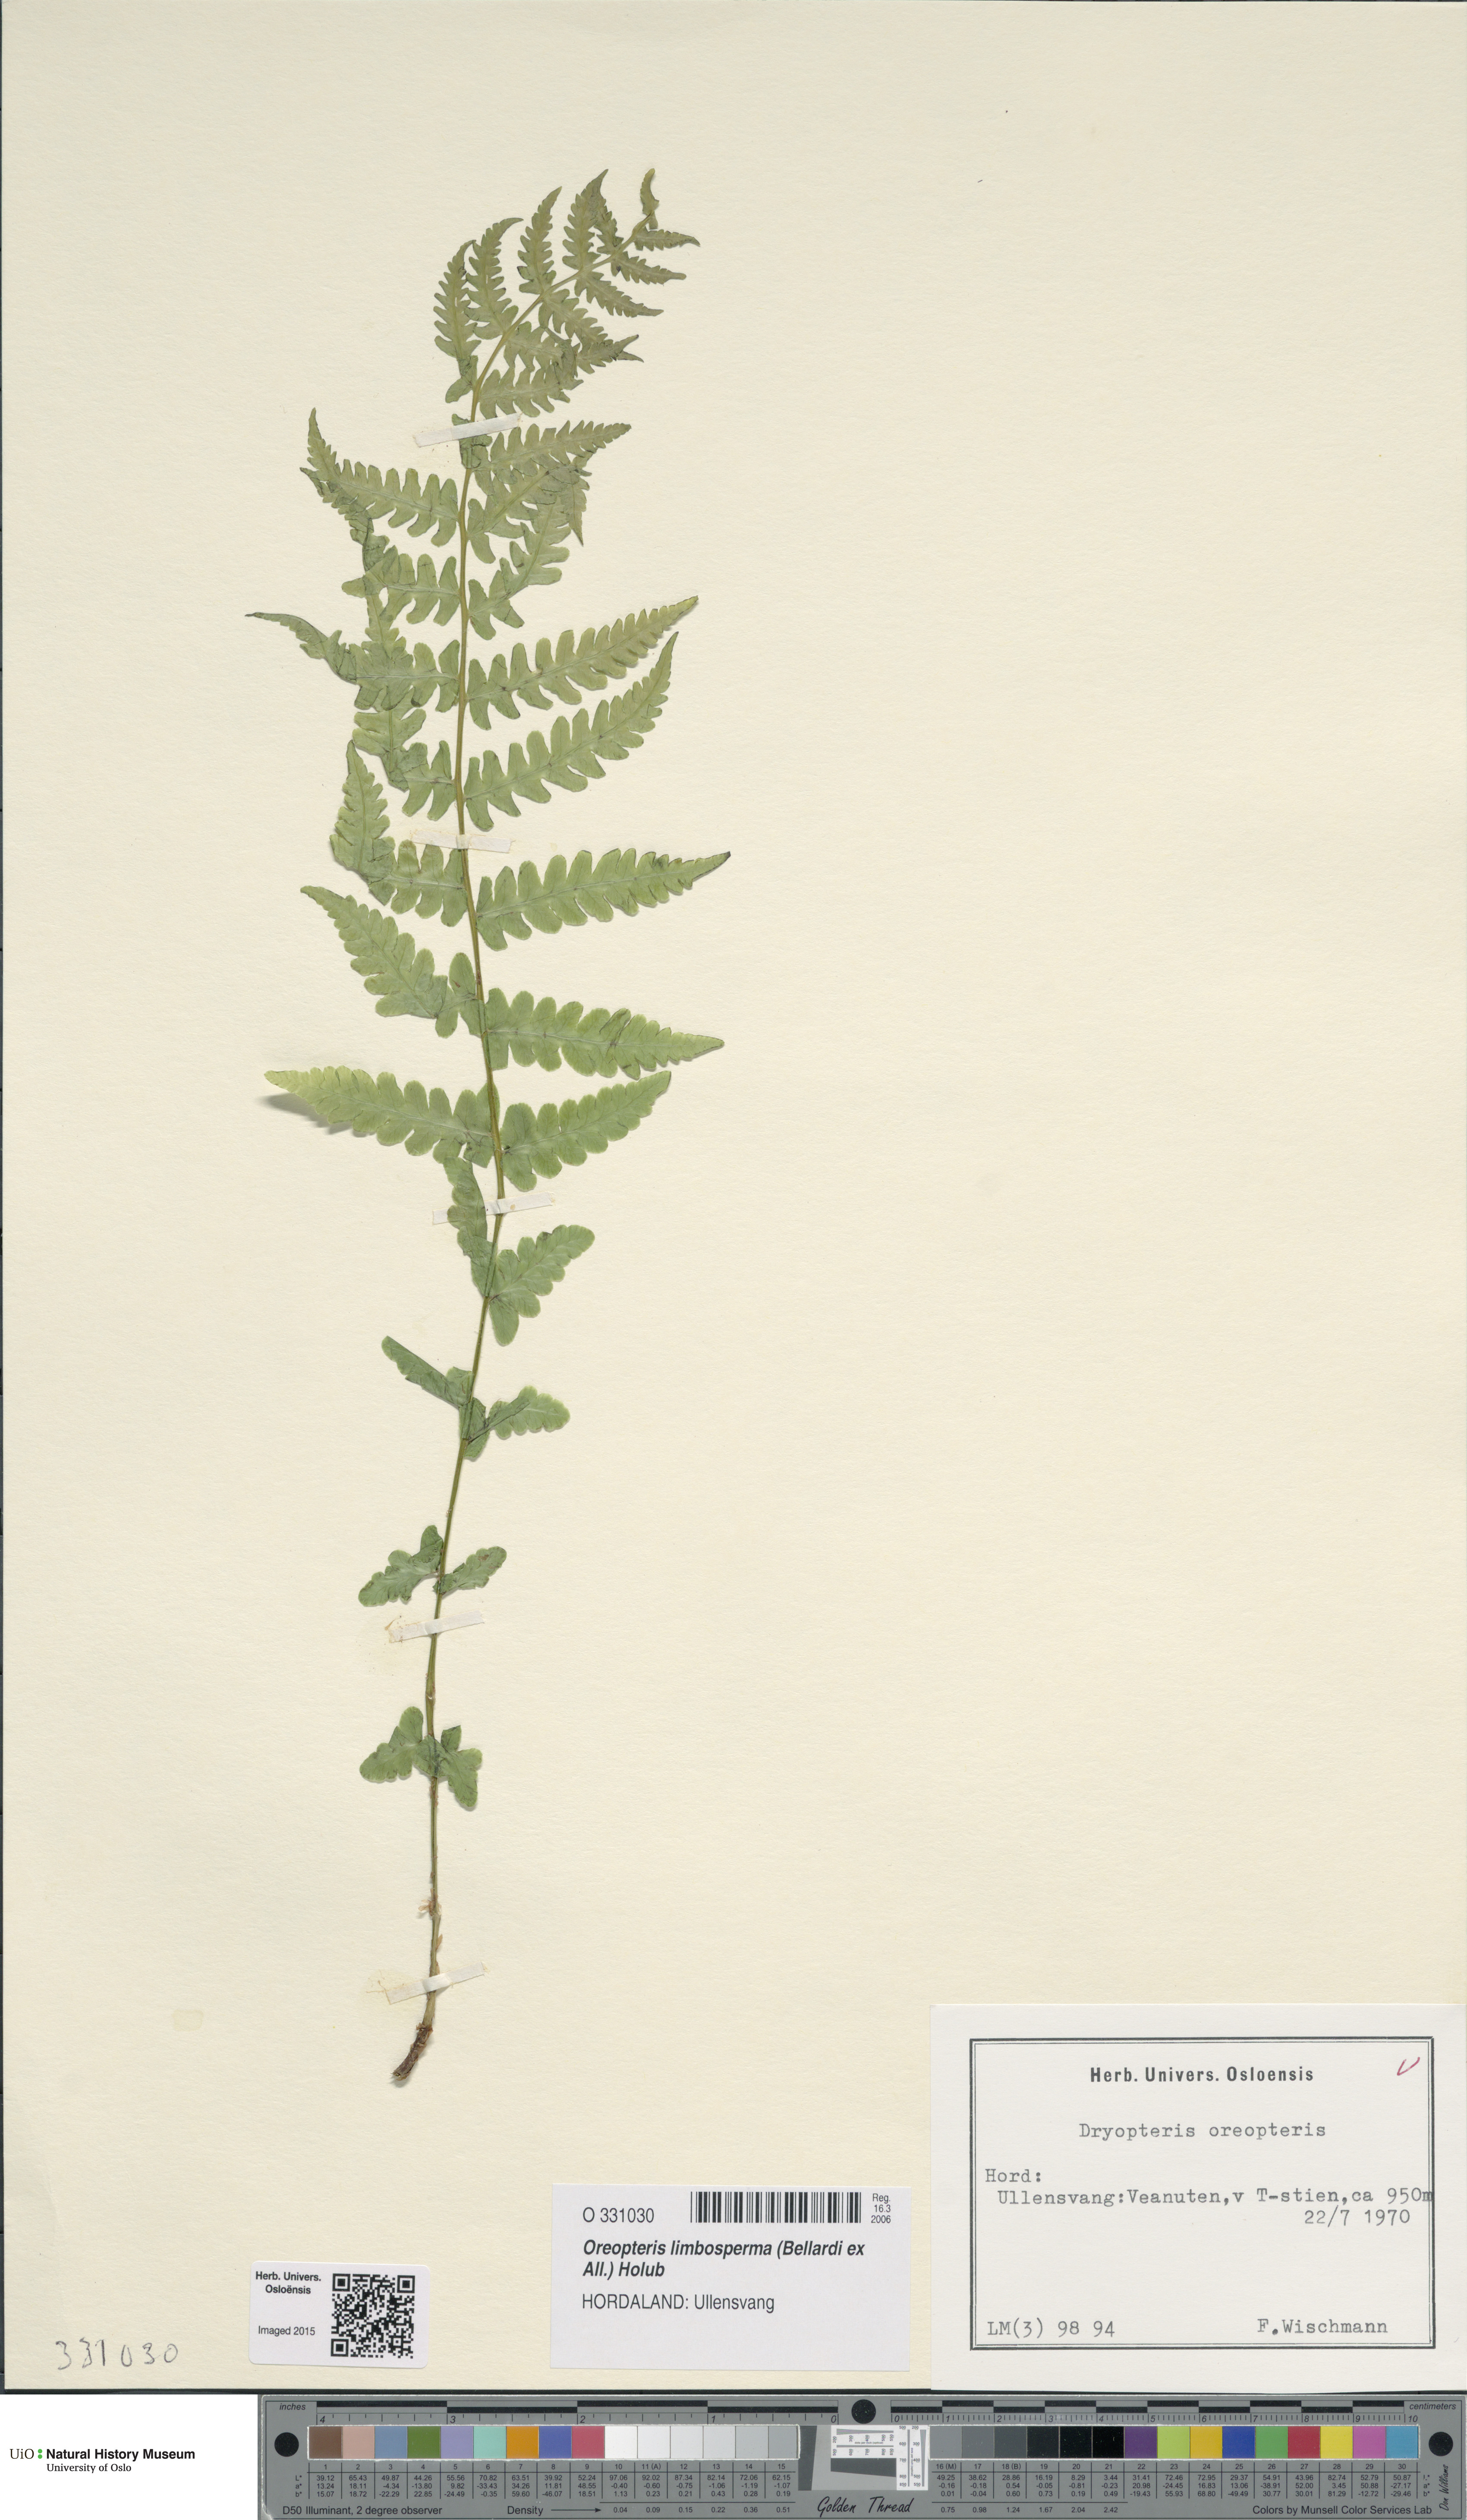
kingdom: Plantae
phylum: Tracheophyta
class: Polypodiopsida
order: Polypodiales
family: Thelypteridaceae
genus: Oreopteris
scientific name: Oreopteris limbosperma
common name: Lemon-scented fern
